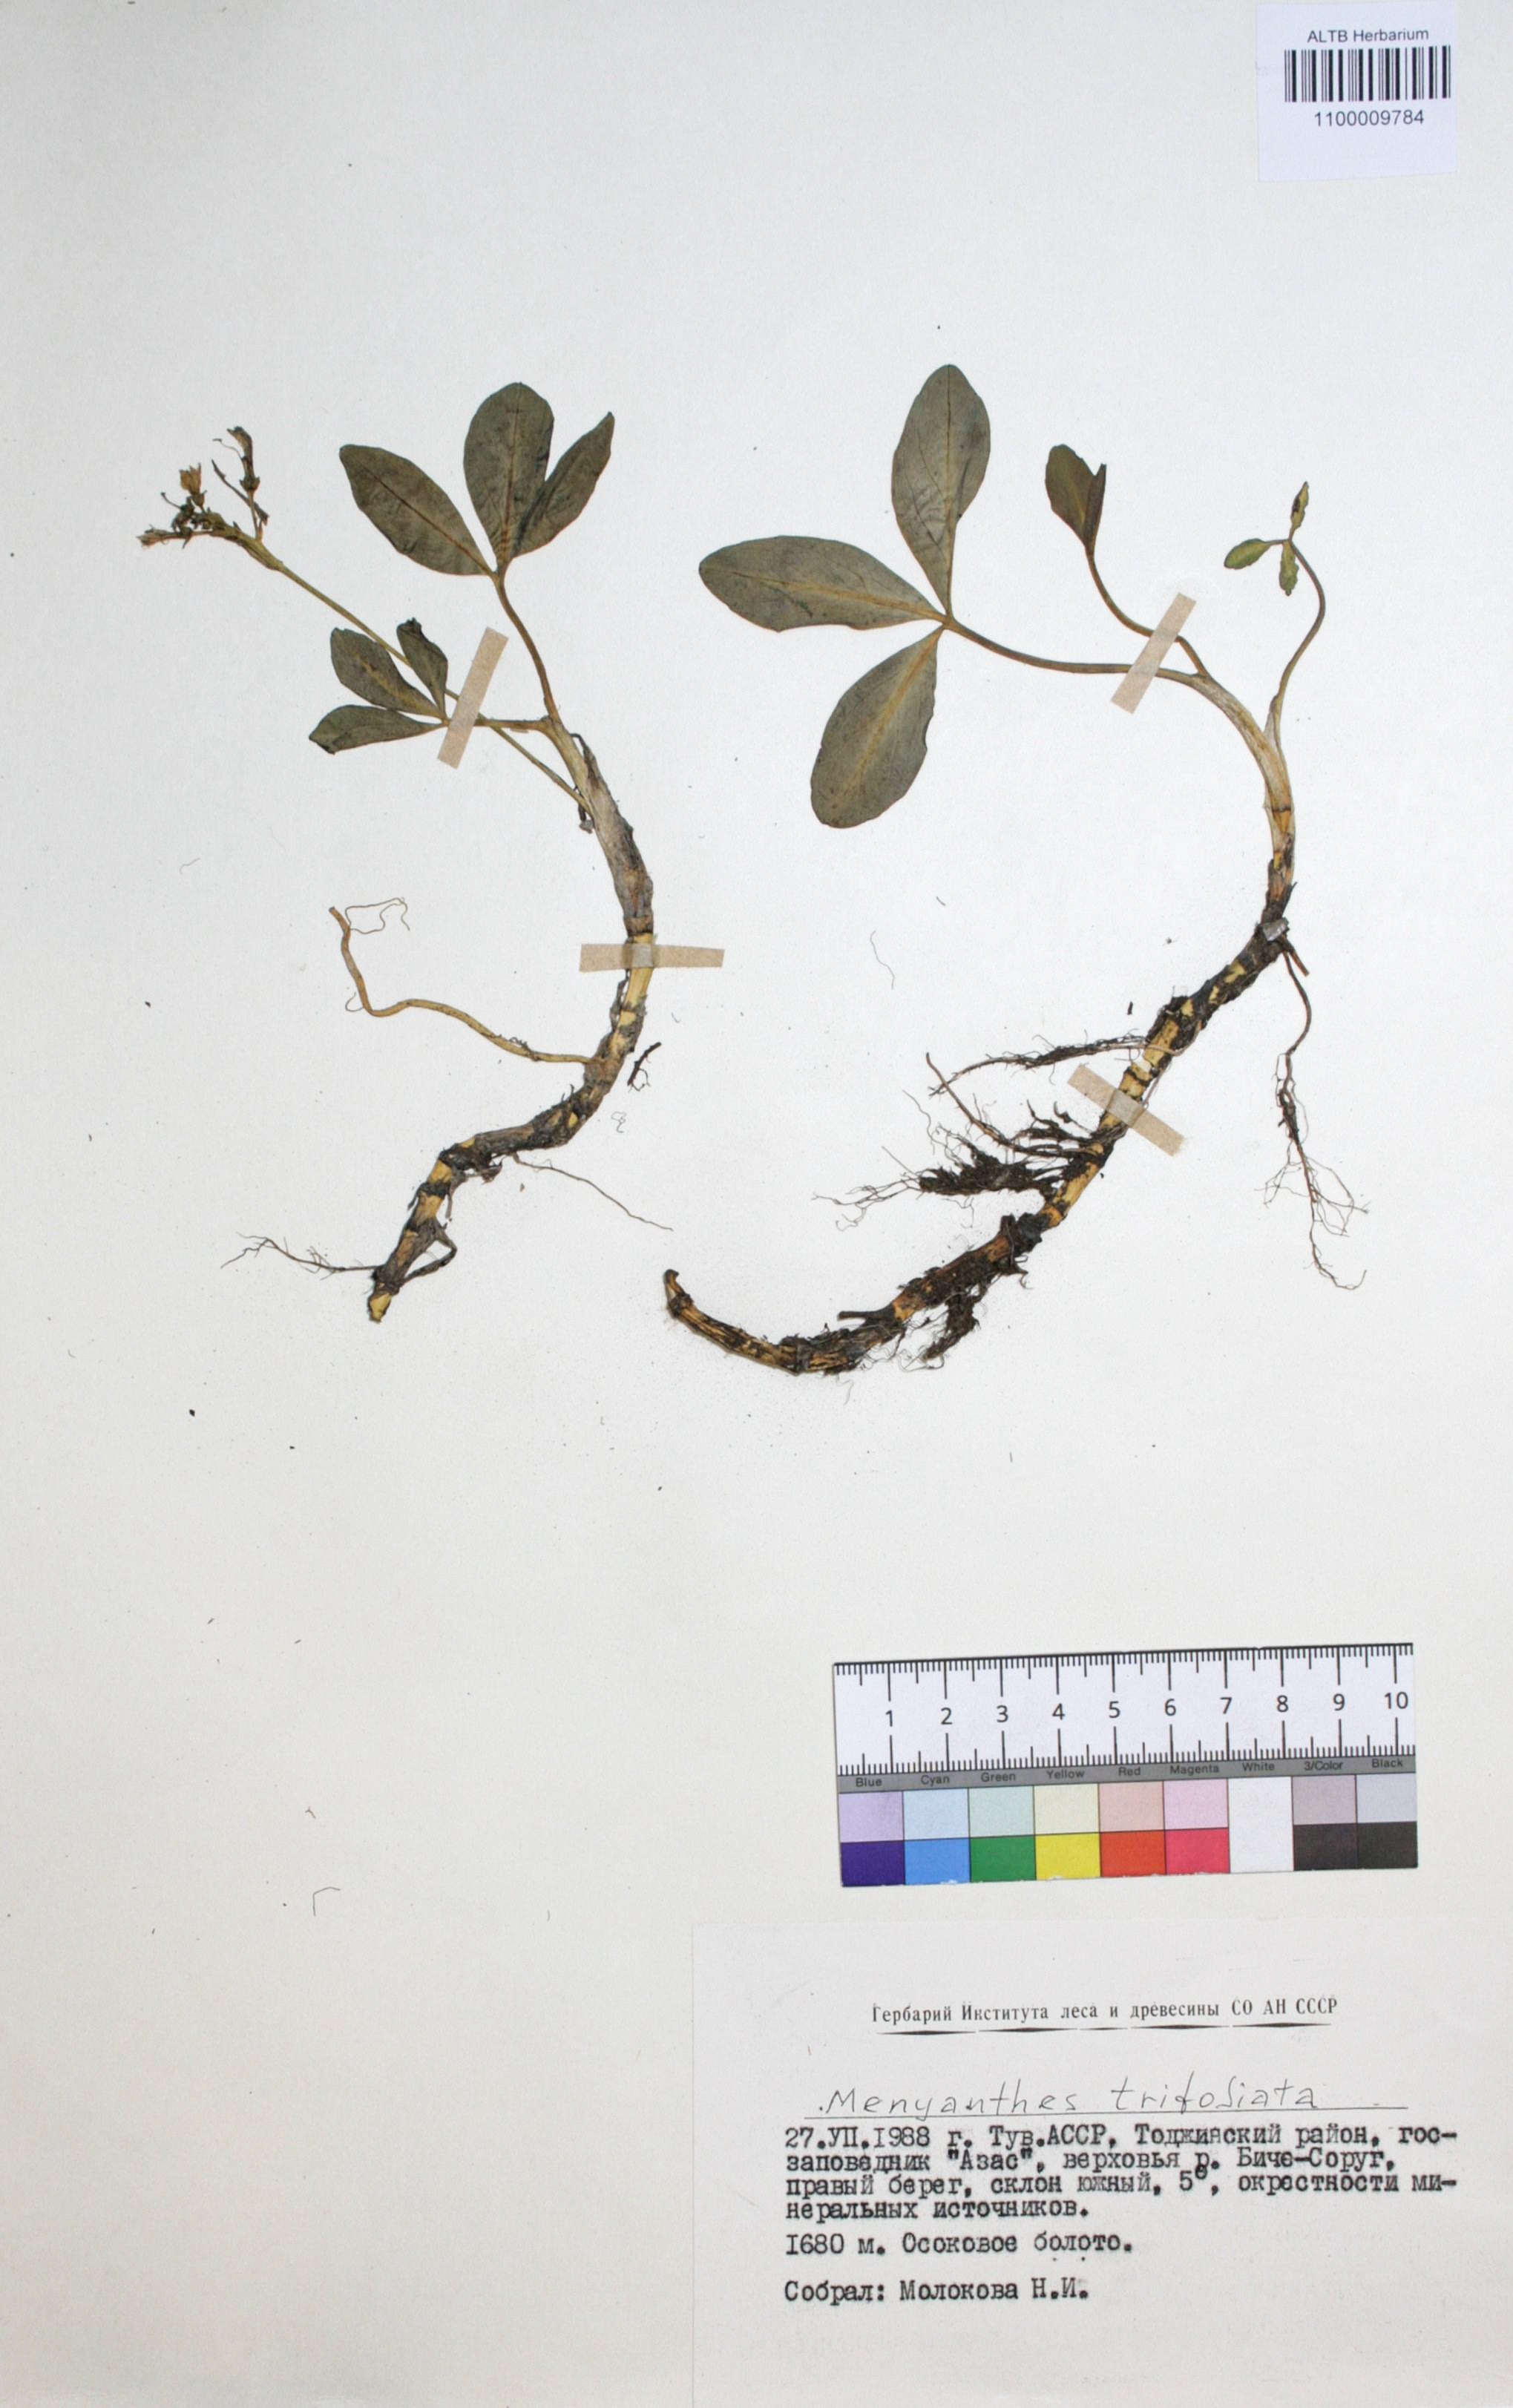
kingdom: Plantae
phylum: Tracheophyta
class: Liliopsida
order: Asparagales
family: Asphodelaceae
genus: Hemerocallis
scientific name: Hemerocallis minor
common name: Small daylily
